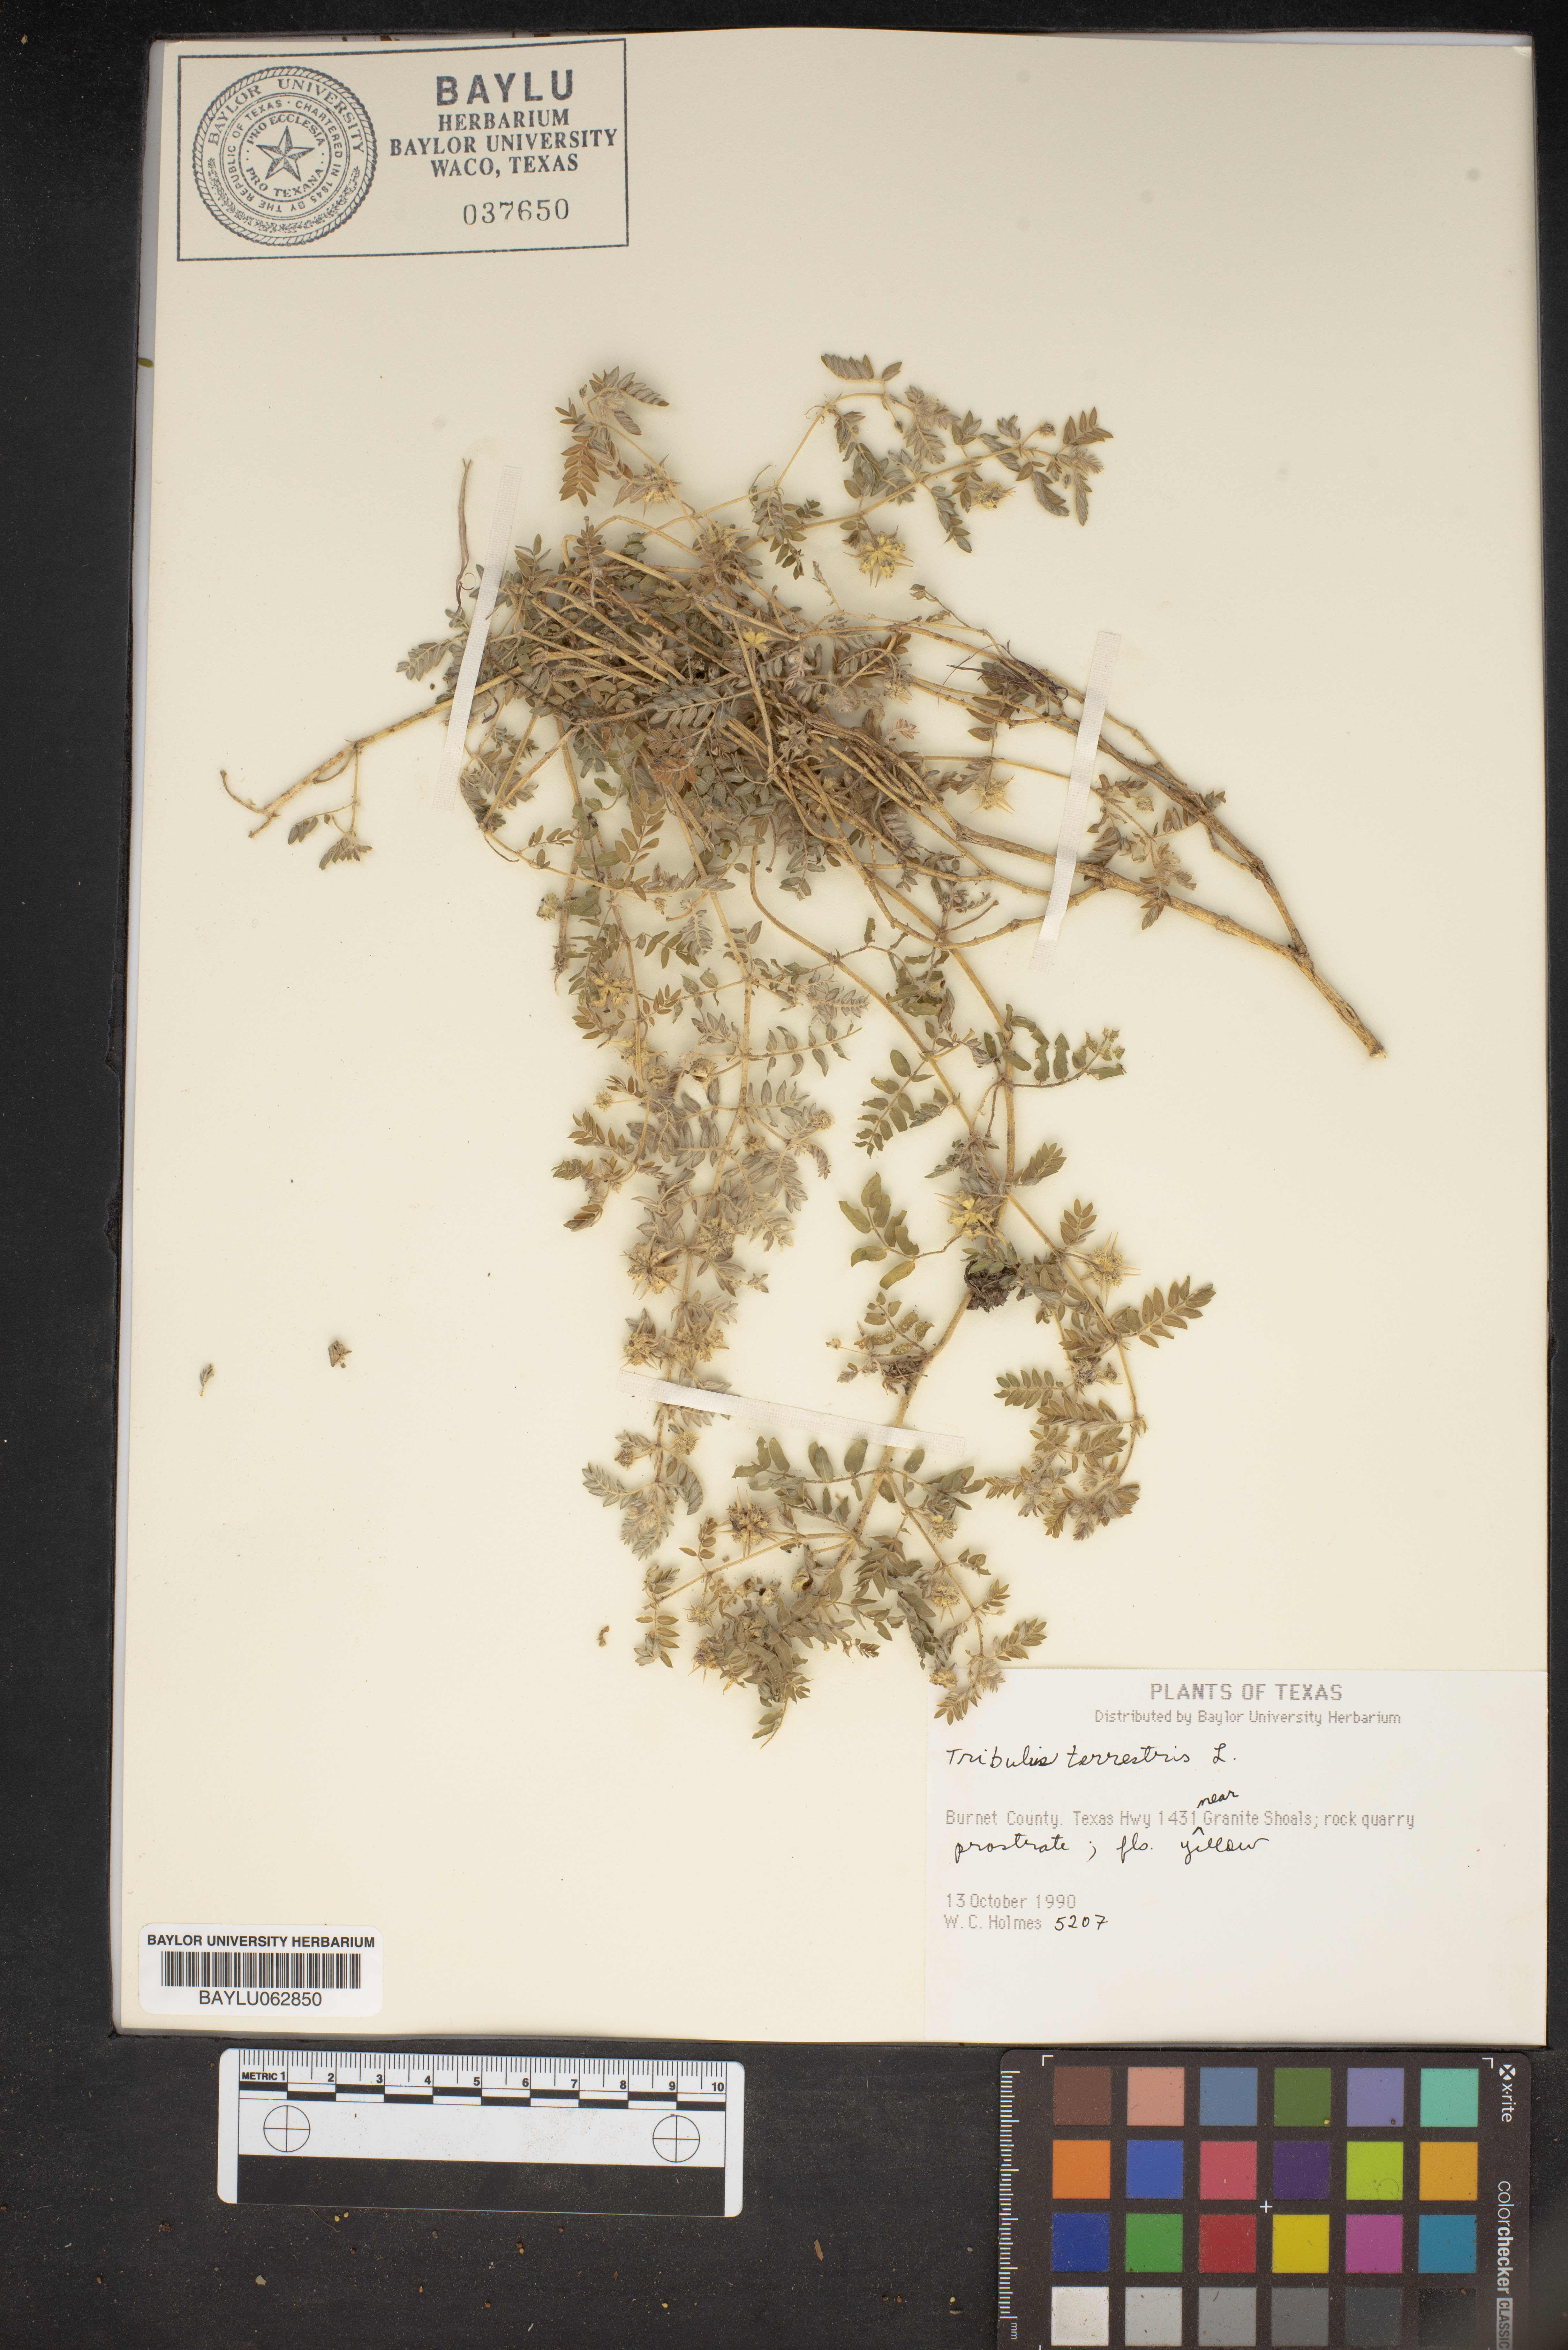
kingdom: Plantae
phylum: Tracheophyta
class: Magnoliopsida
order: Zygophyllales
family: Zygophyllaceae
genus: Tribulus
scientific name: Tribulus terrestris
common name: Puncturevine
